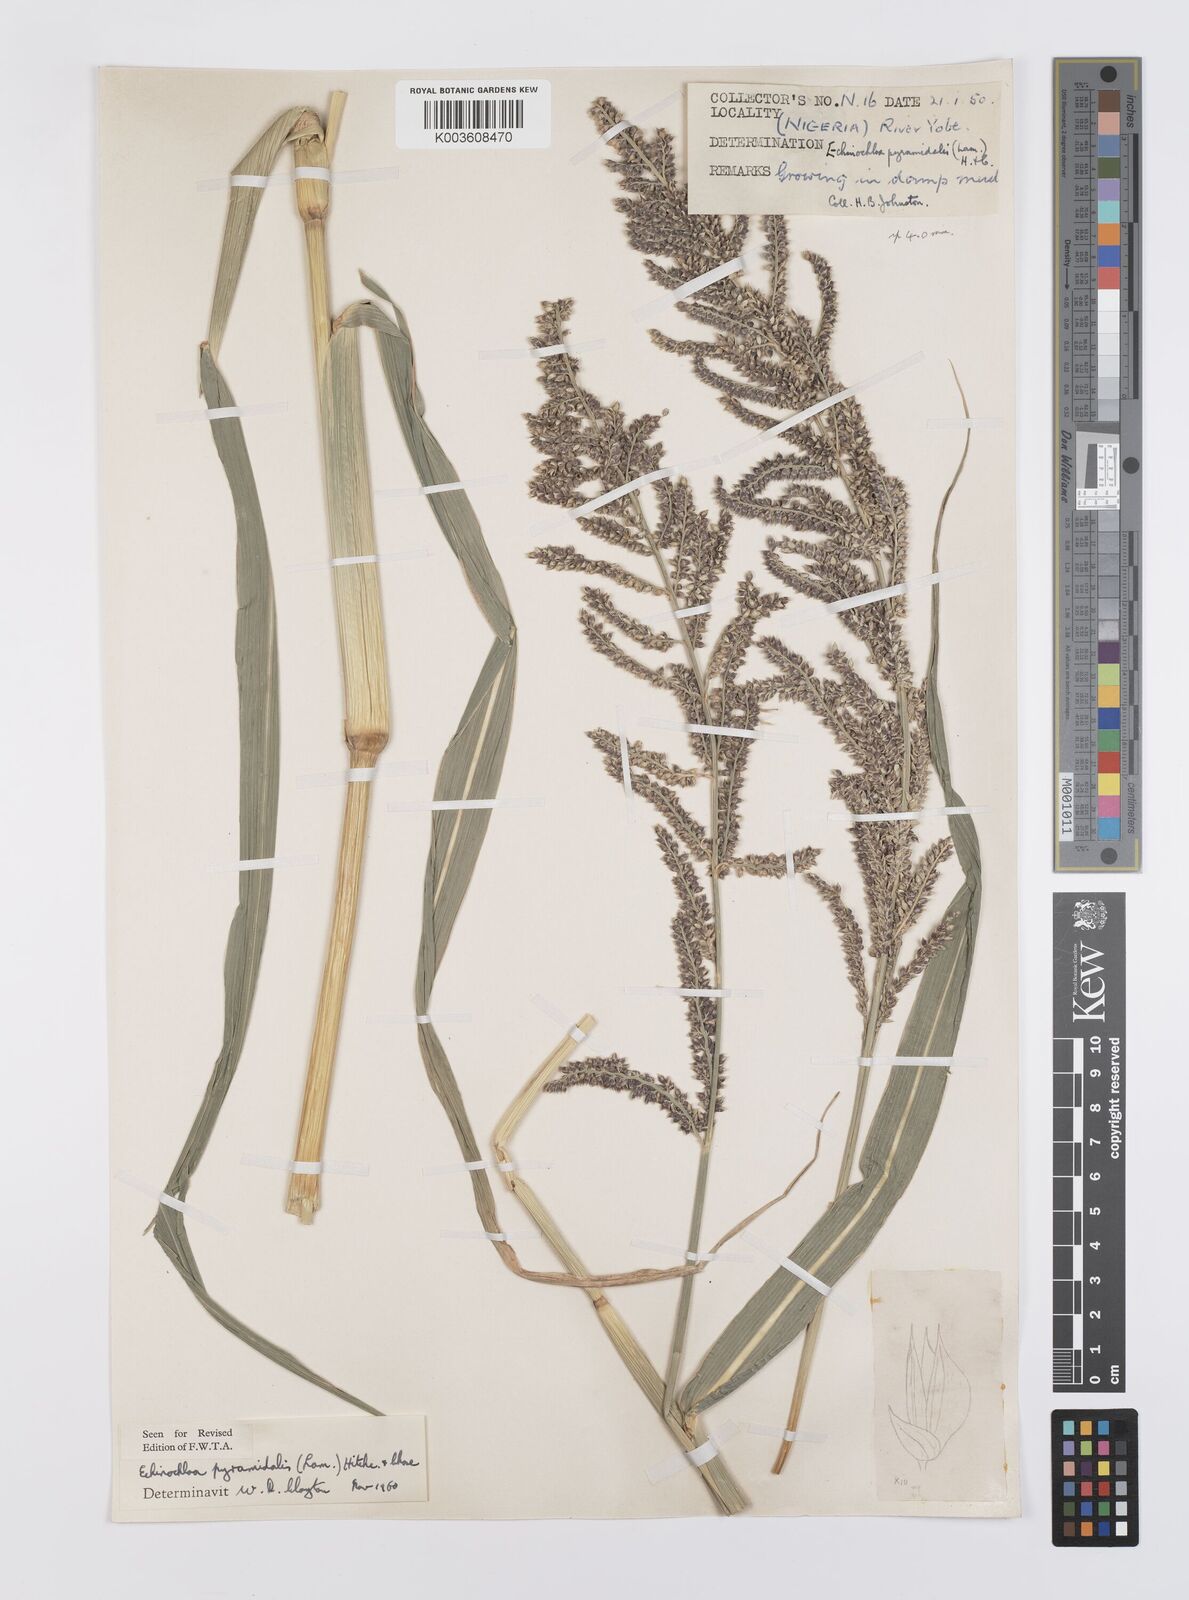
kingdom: Plantae
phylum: Tracheophyta
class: Liliopsida
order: Poales
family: Poaceae
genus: Echinochloa
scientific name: Echinochloa pyramidalis
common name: Antelope grass
